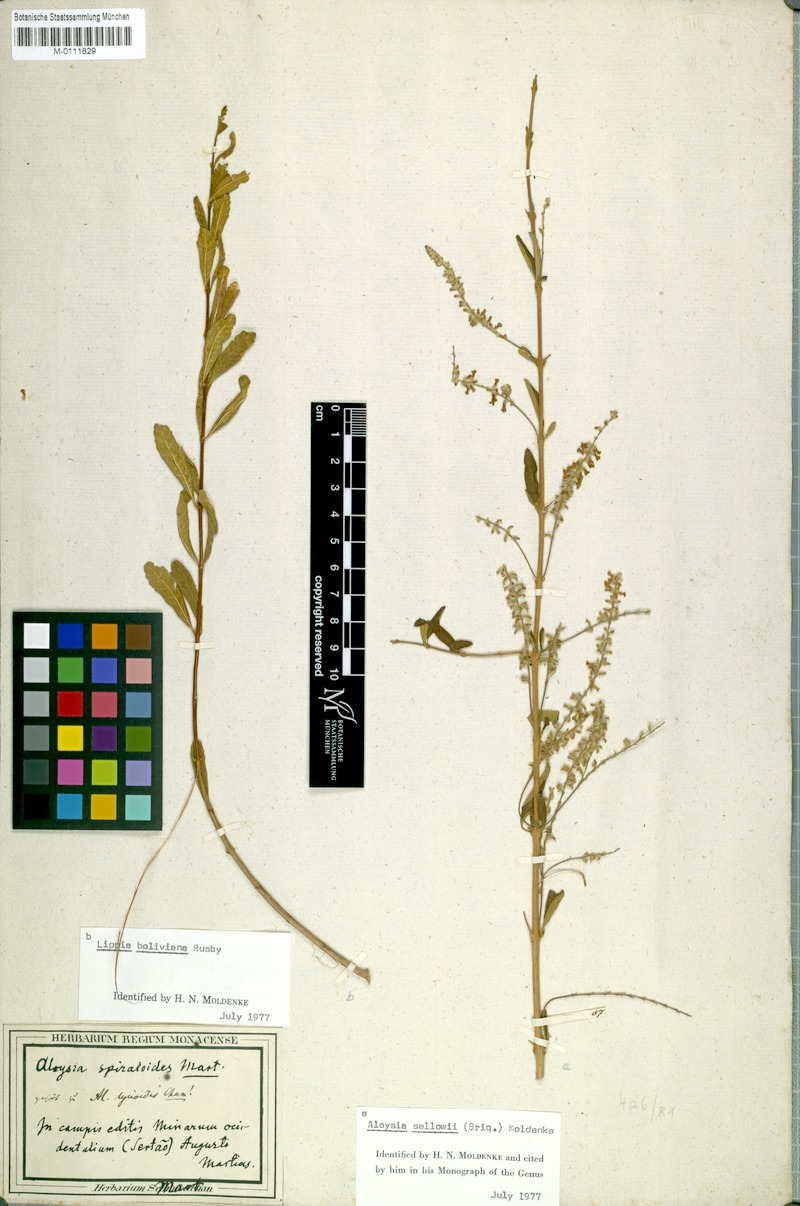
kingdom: Plantae
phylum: Tracheophyta
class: Magnoliopsida
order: Lamiales
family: Verbenaceae
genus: Lippia
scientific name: Lippia integrifolia
